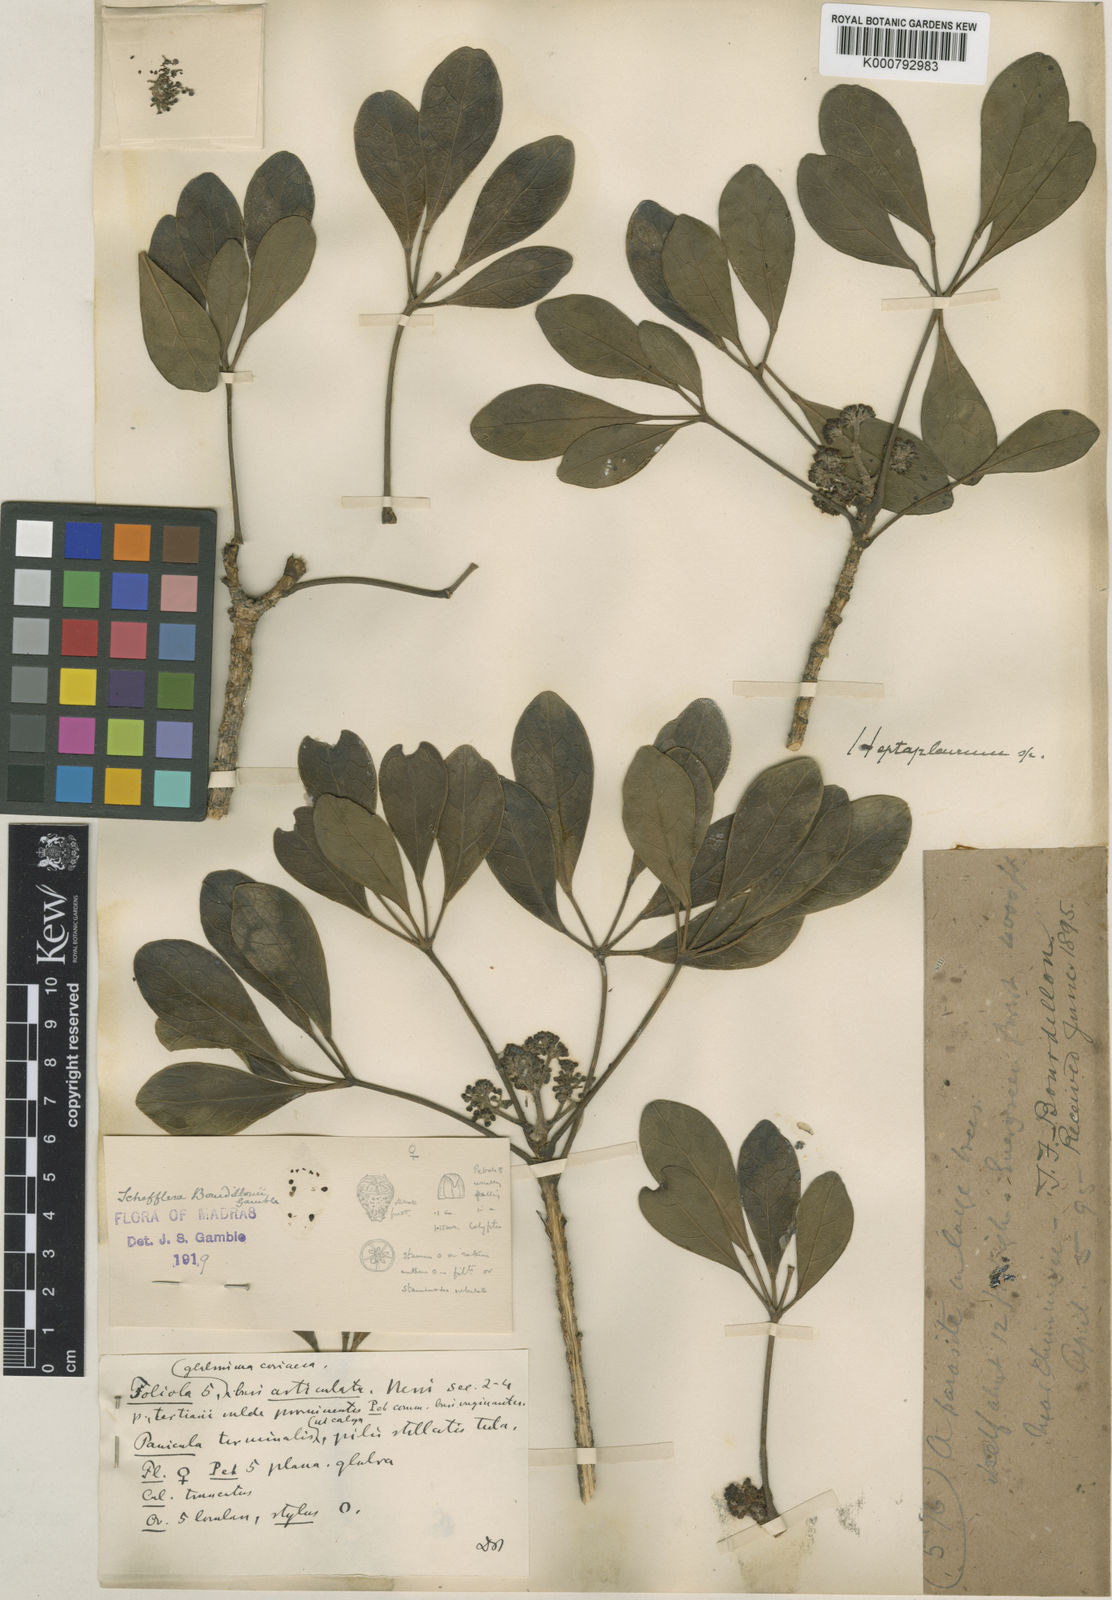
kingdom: Plantae
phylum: Tracheophyta
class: Magnoliopsida
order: Apiales
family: Araliaceae
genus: Heptapleurum
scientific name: Heptapleurum bourdillonii
